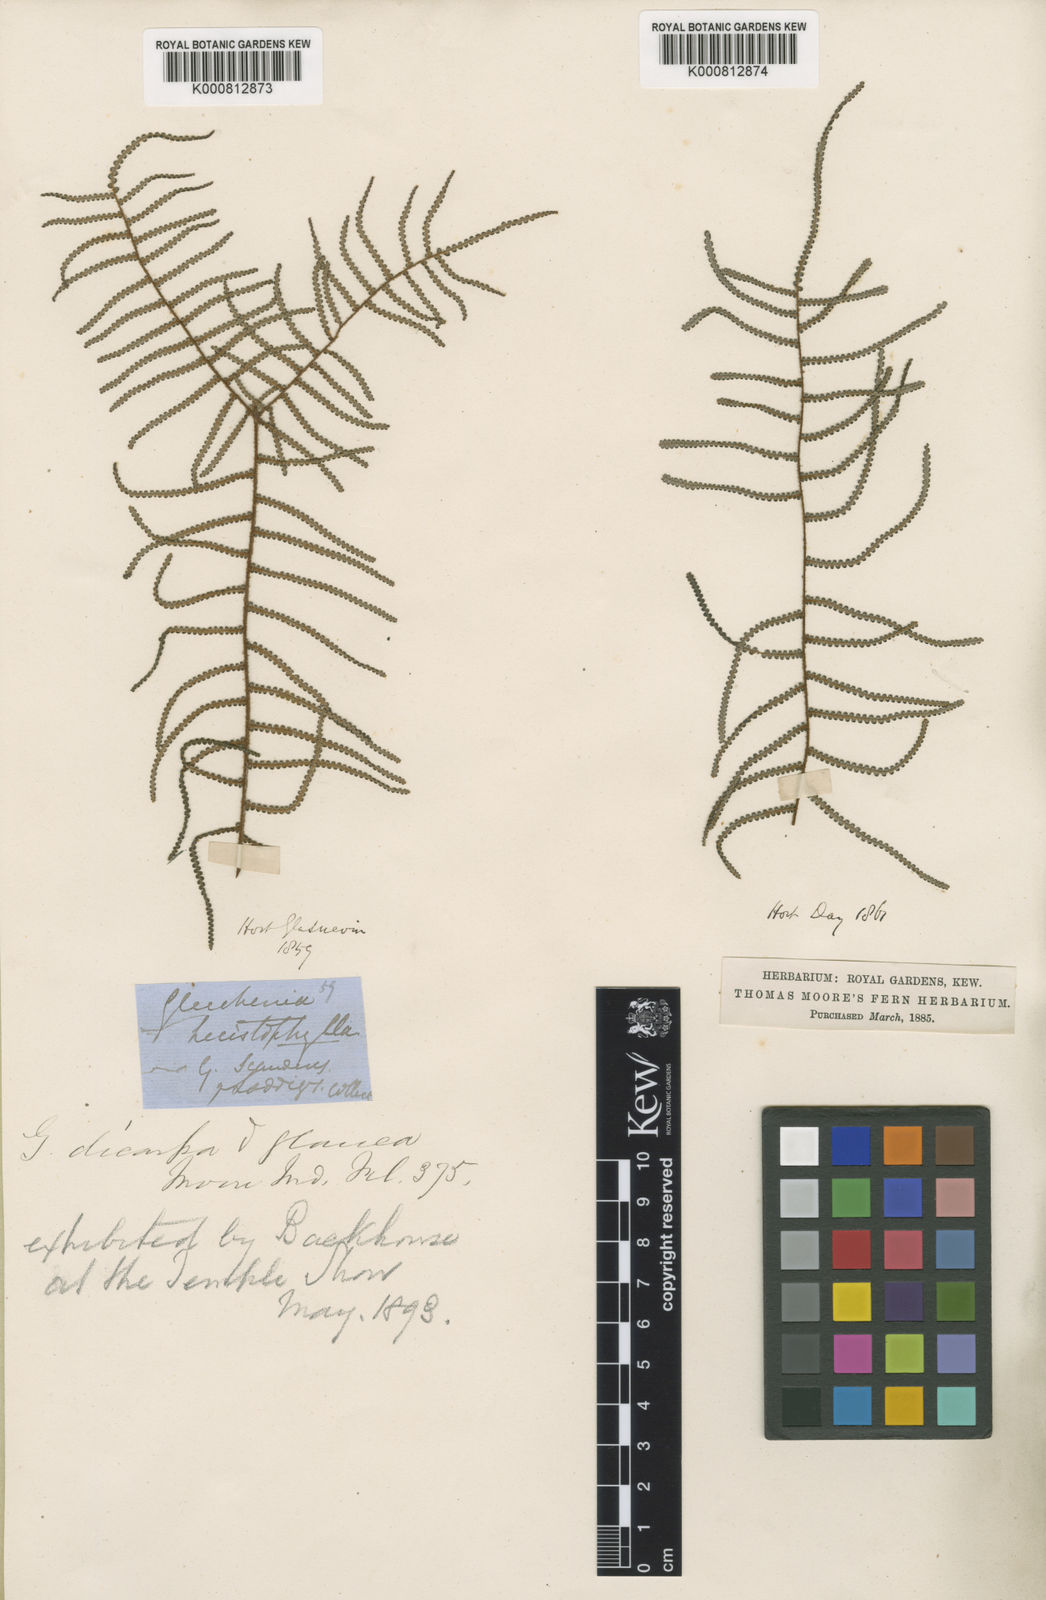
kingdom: Plantae
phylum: Tracheophyta
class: Polypodiopsida
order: Gleicheniales
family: Gleicheniaceae
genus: Gleichenia
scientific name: Gleichenia dicarpa
